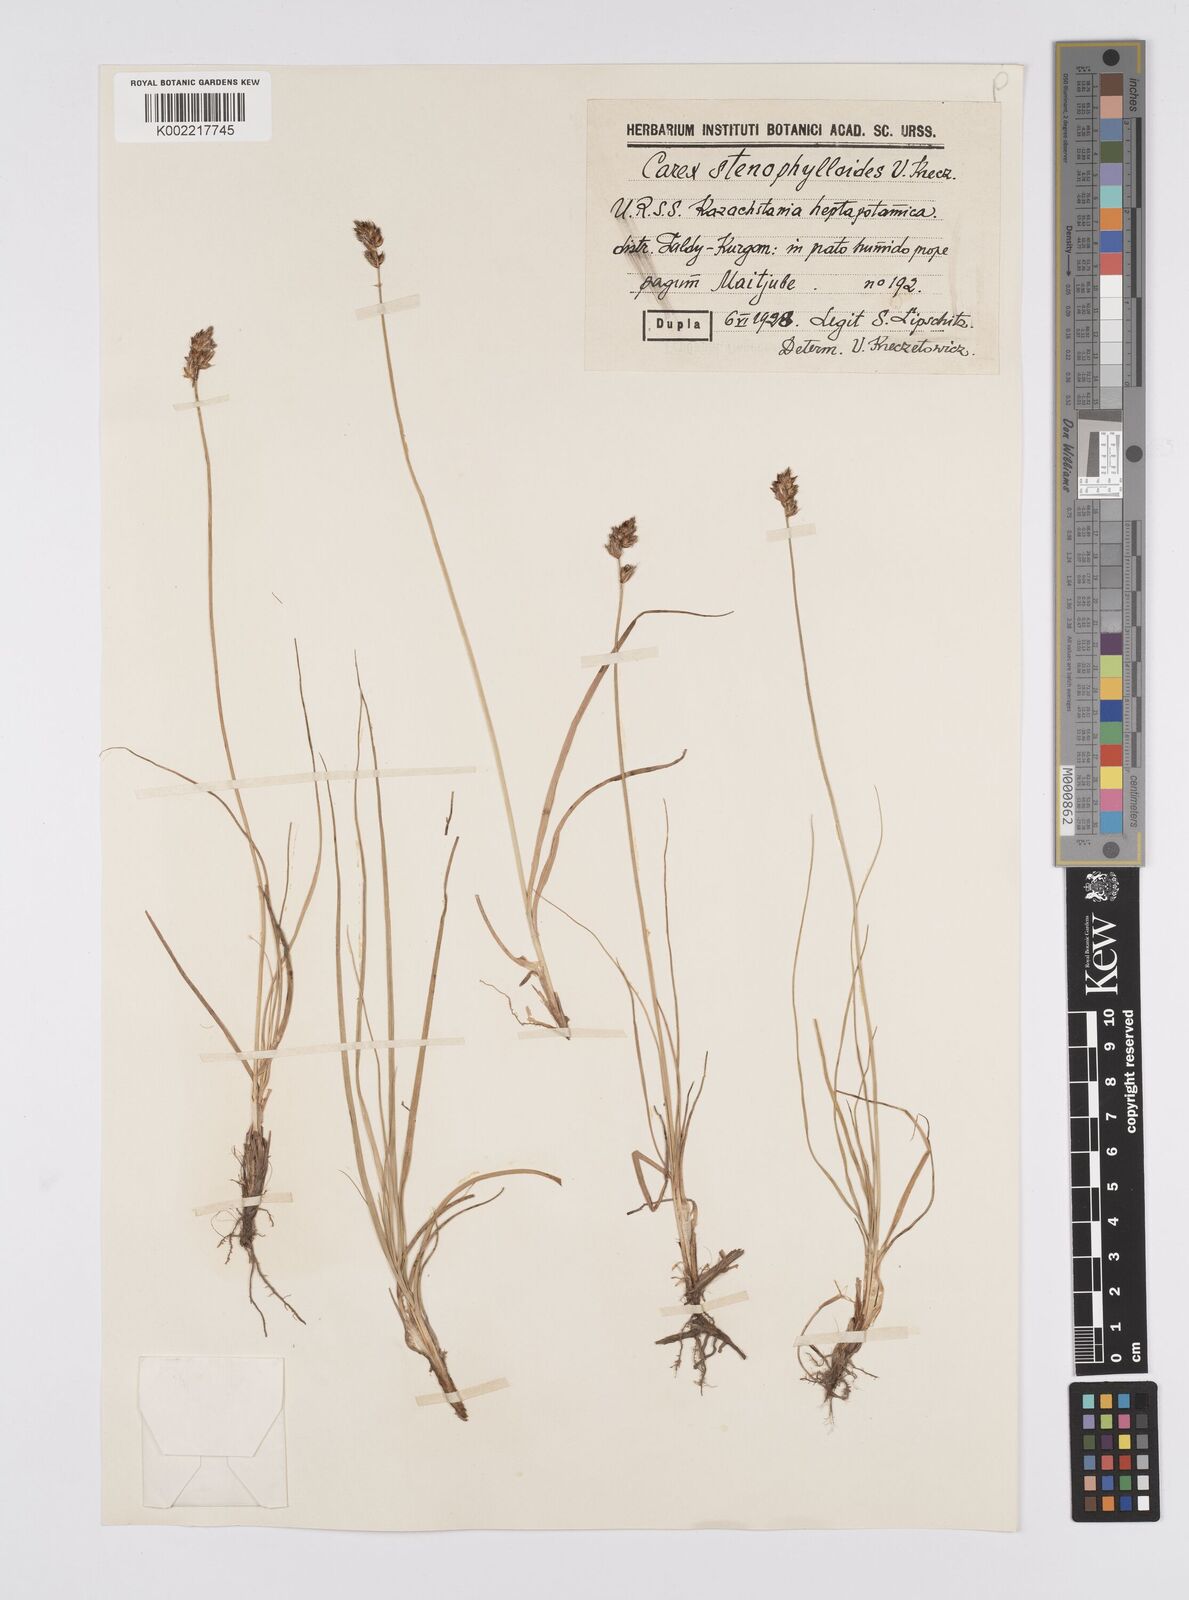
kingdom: Plantae
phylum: Tracheophyta
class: Liliopsida
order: Poales
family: Cyperaceae
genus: Carex
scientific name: Carex stenophylla
